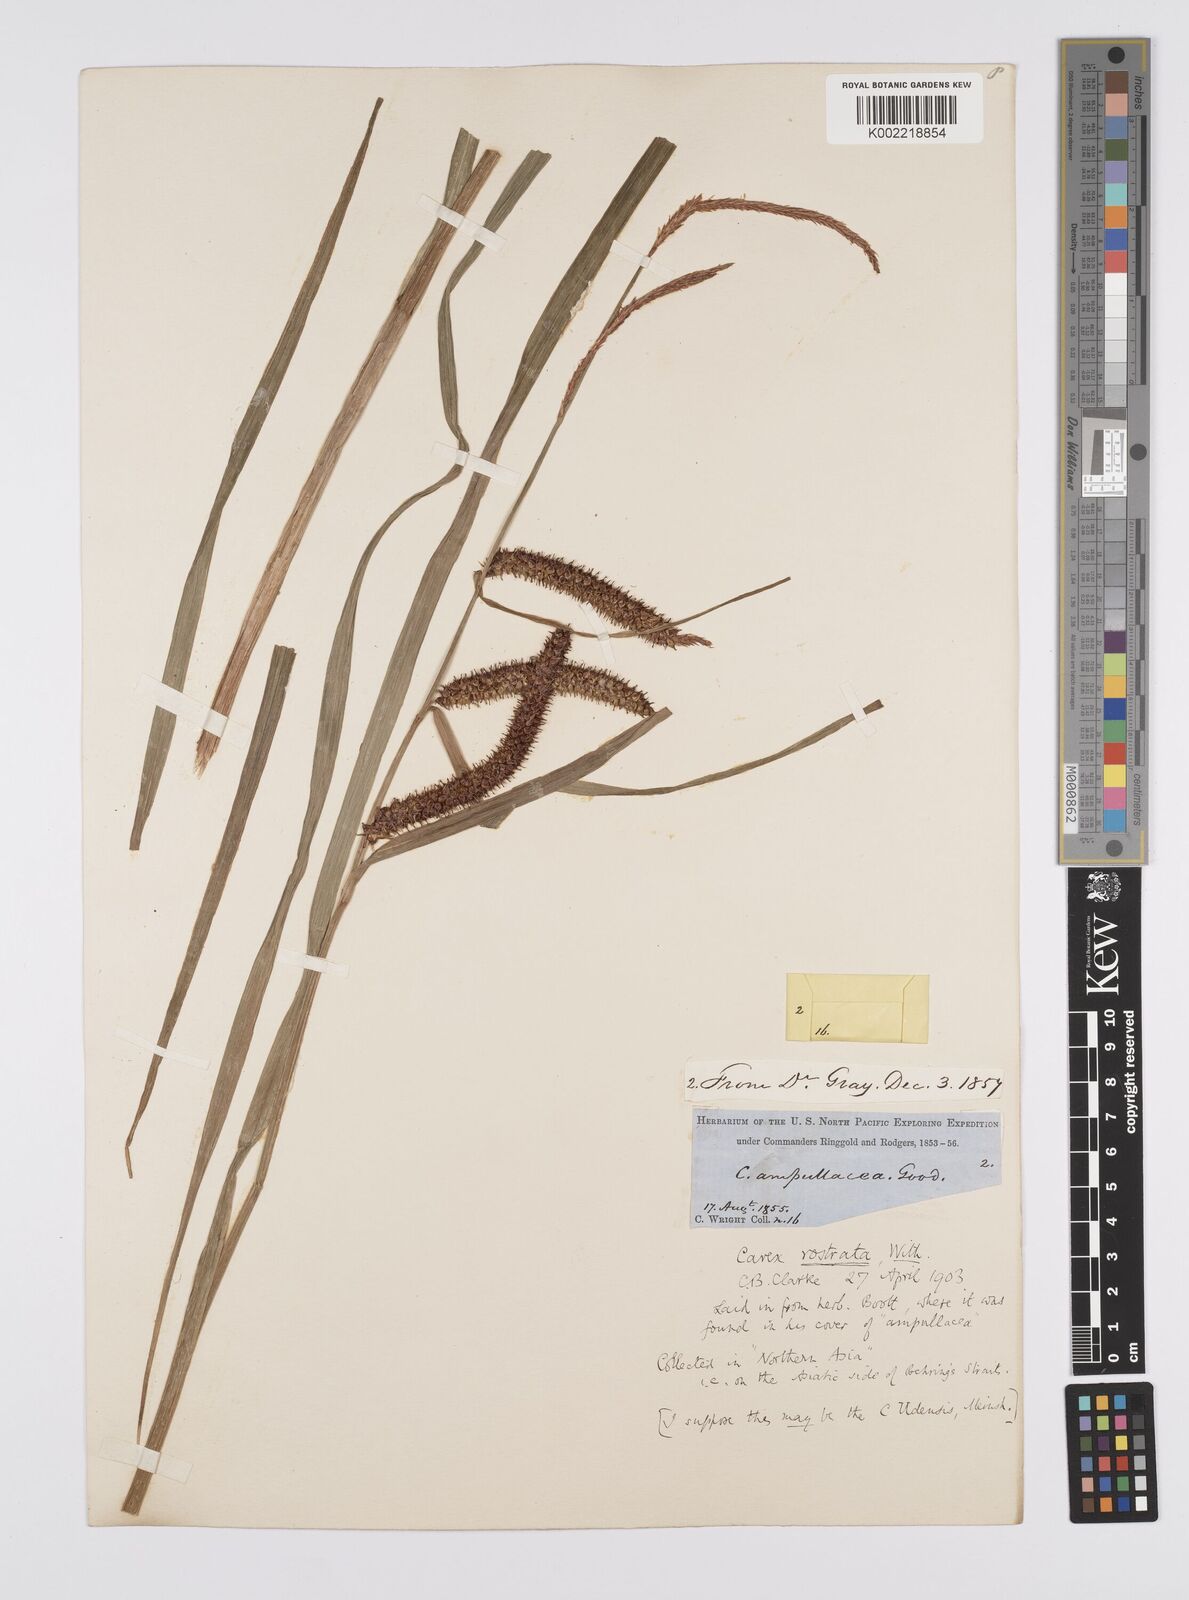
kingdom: Plantae
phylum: Tracheophyta
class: Liliopsida
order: Poales
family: Cyperaceae
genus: Carex
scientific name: Carex michauxiana
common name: Michaux's sedge
